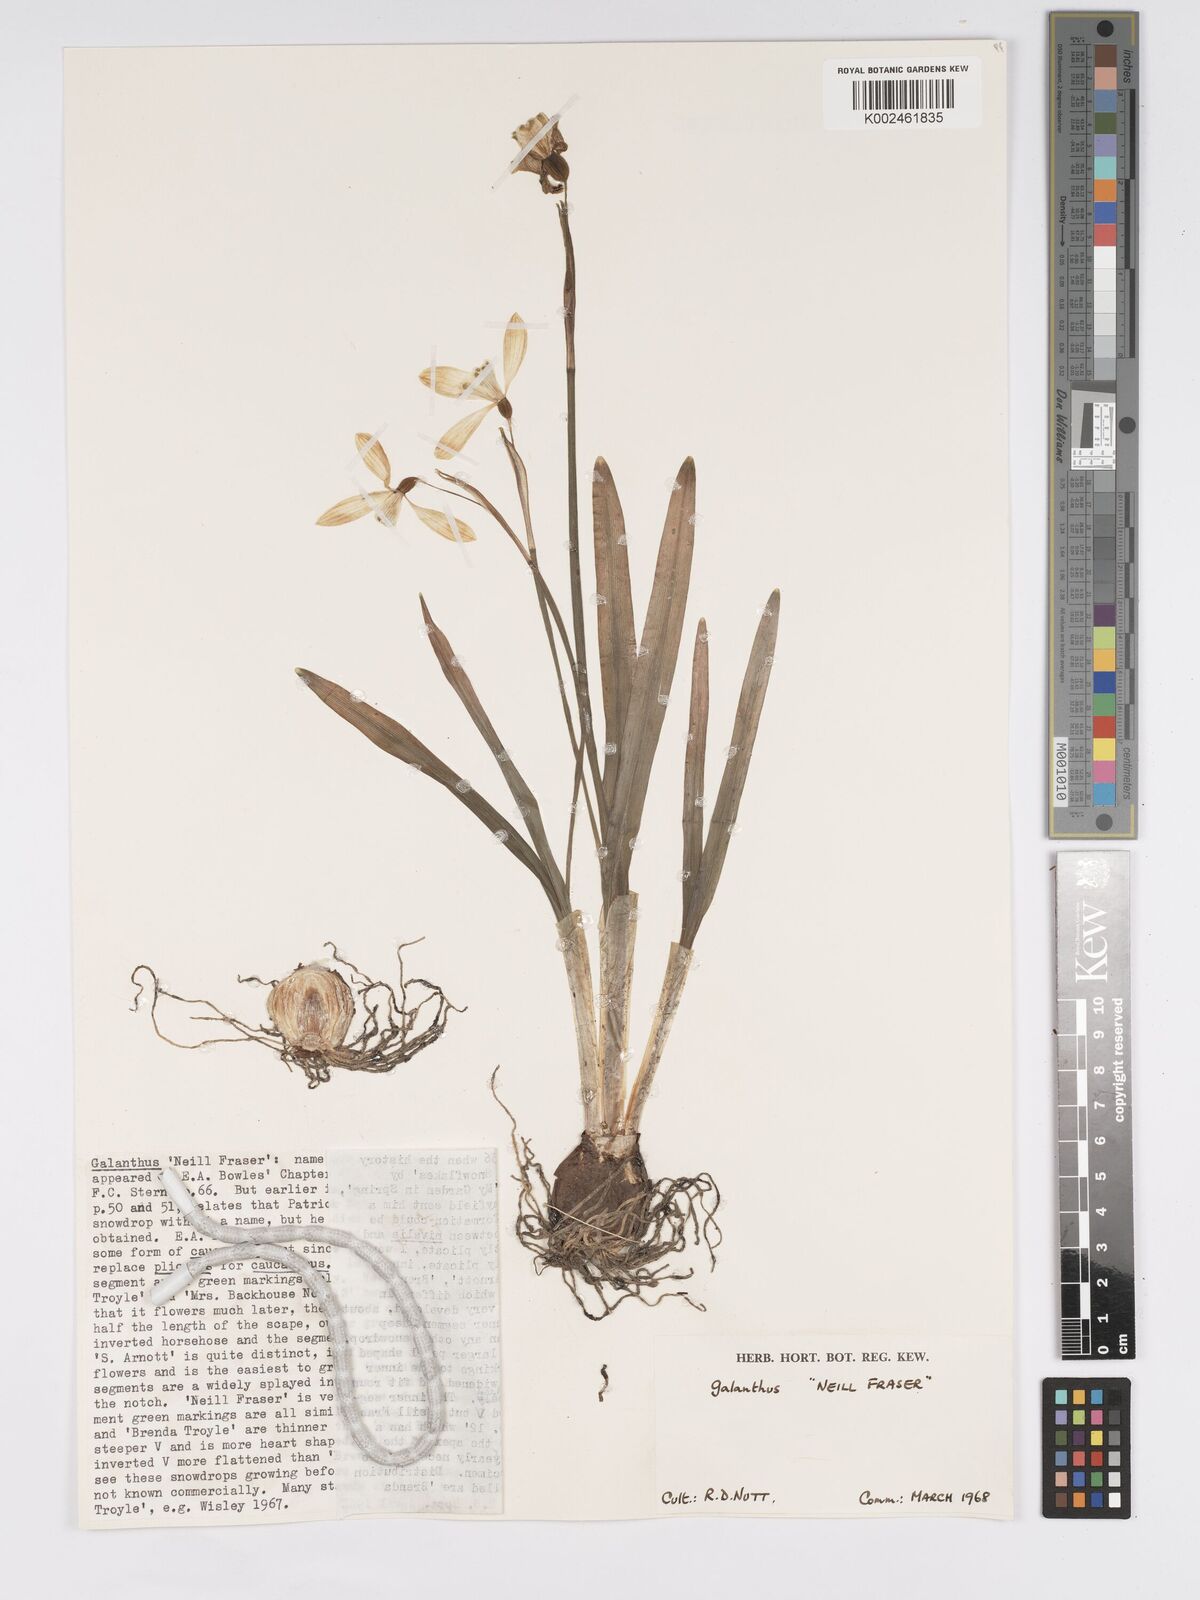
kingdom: Plantae
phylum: Tracheophyta
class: Liliopsida
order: Asparagales
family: Amaryllidaceae
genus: Galanthus
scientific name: Galanthus
